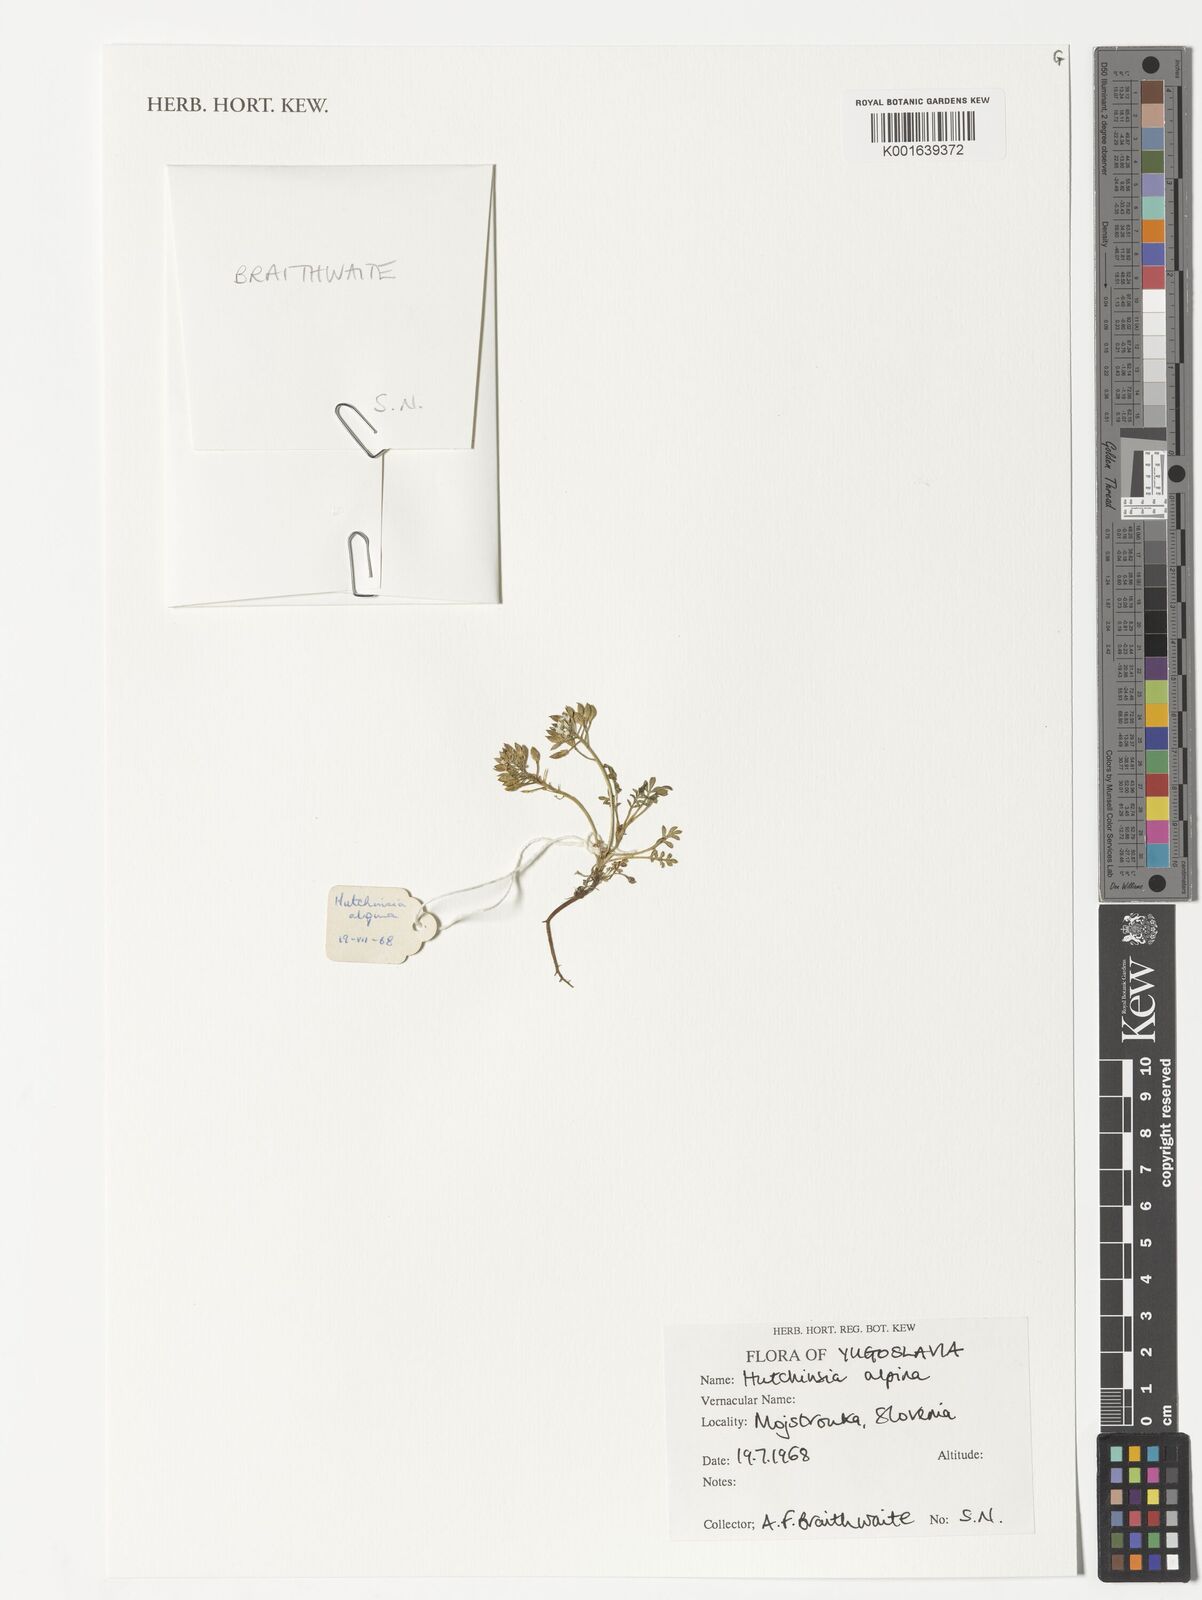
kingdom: Plantae
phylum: Tracheophyta
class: Magnoliopsida
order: Brassicales
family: Brassicaceae
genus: Hornungia
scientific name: Hornungia alpina
